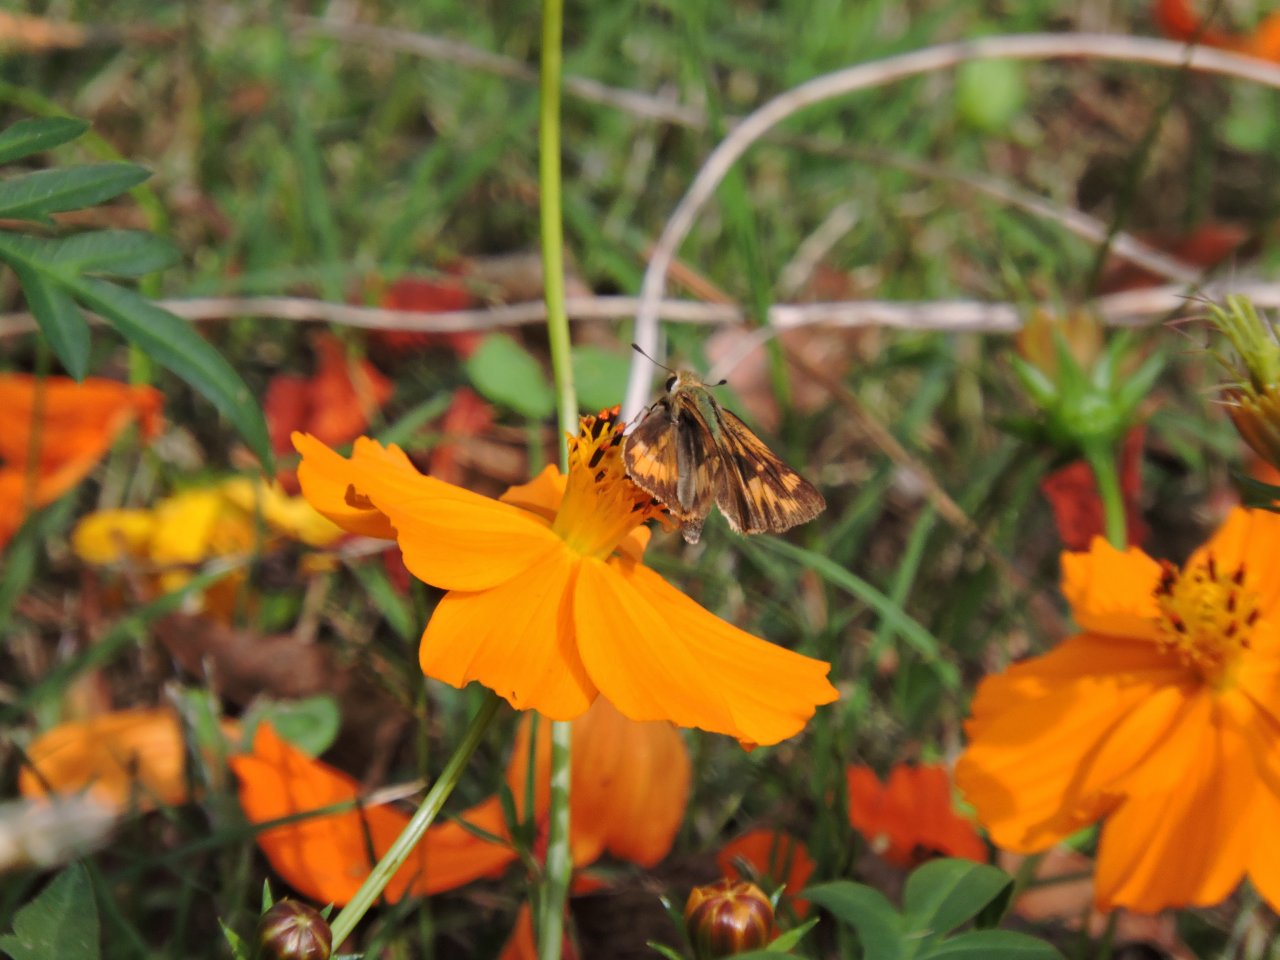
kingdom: Animalia
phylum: Arthropoda
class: Insecta
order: Lepidoptera
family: Hesperiidae
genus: Hylephila
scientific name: Hylephila phyleus
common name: Fiery Skipper
